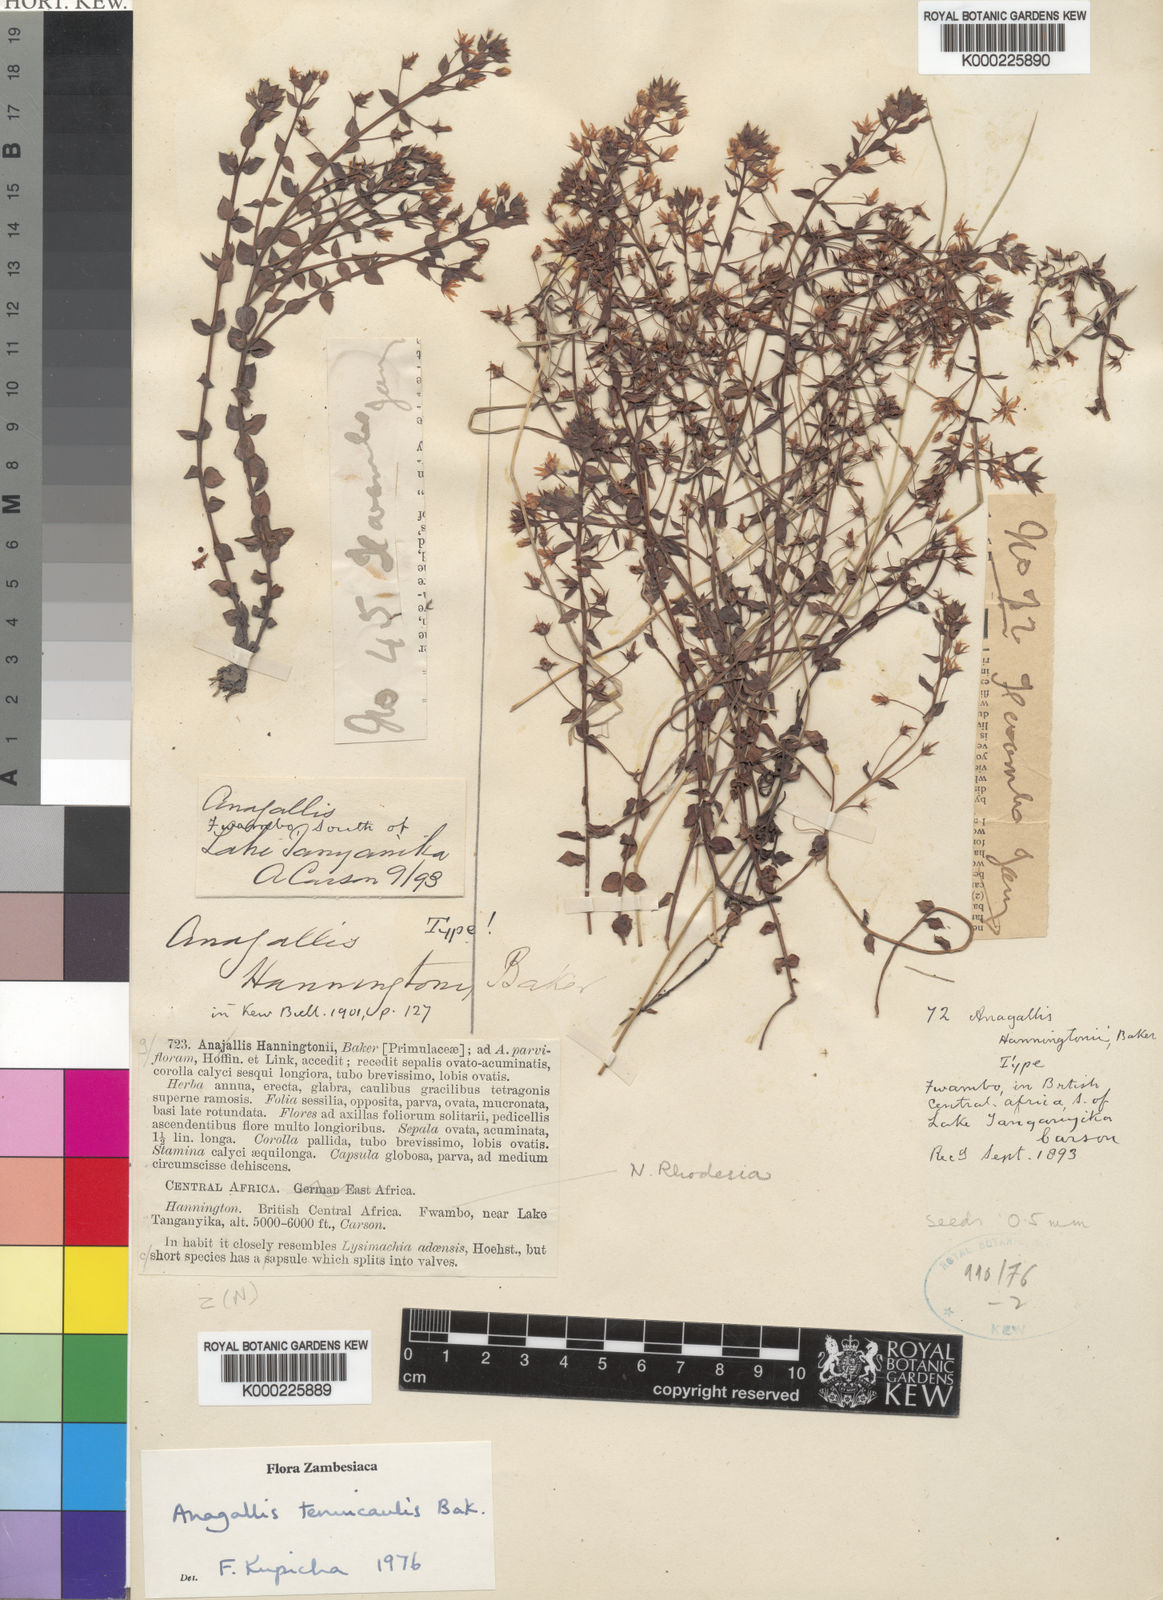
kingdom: Plantae
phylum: Tracheophyta
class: Magnoliopsida
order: Ericales
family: Primulaceae
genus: Lysimachia
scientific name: Lysimachia tenuicaulis
